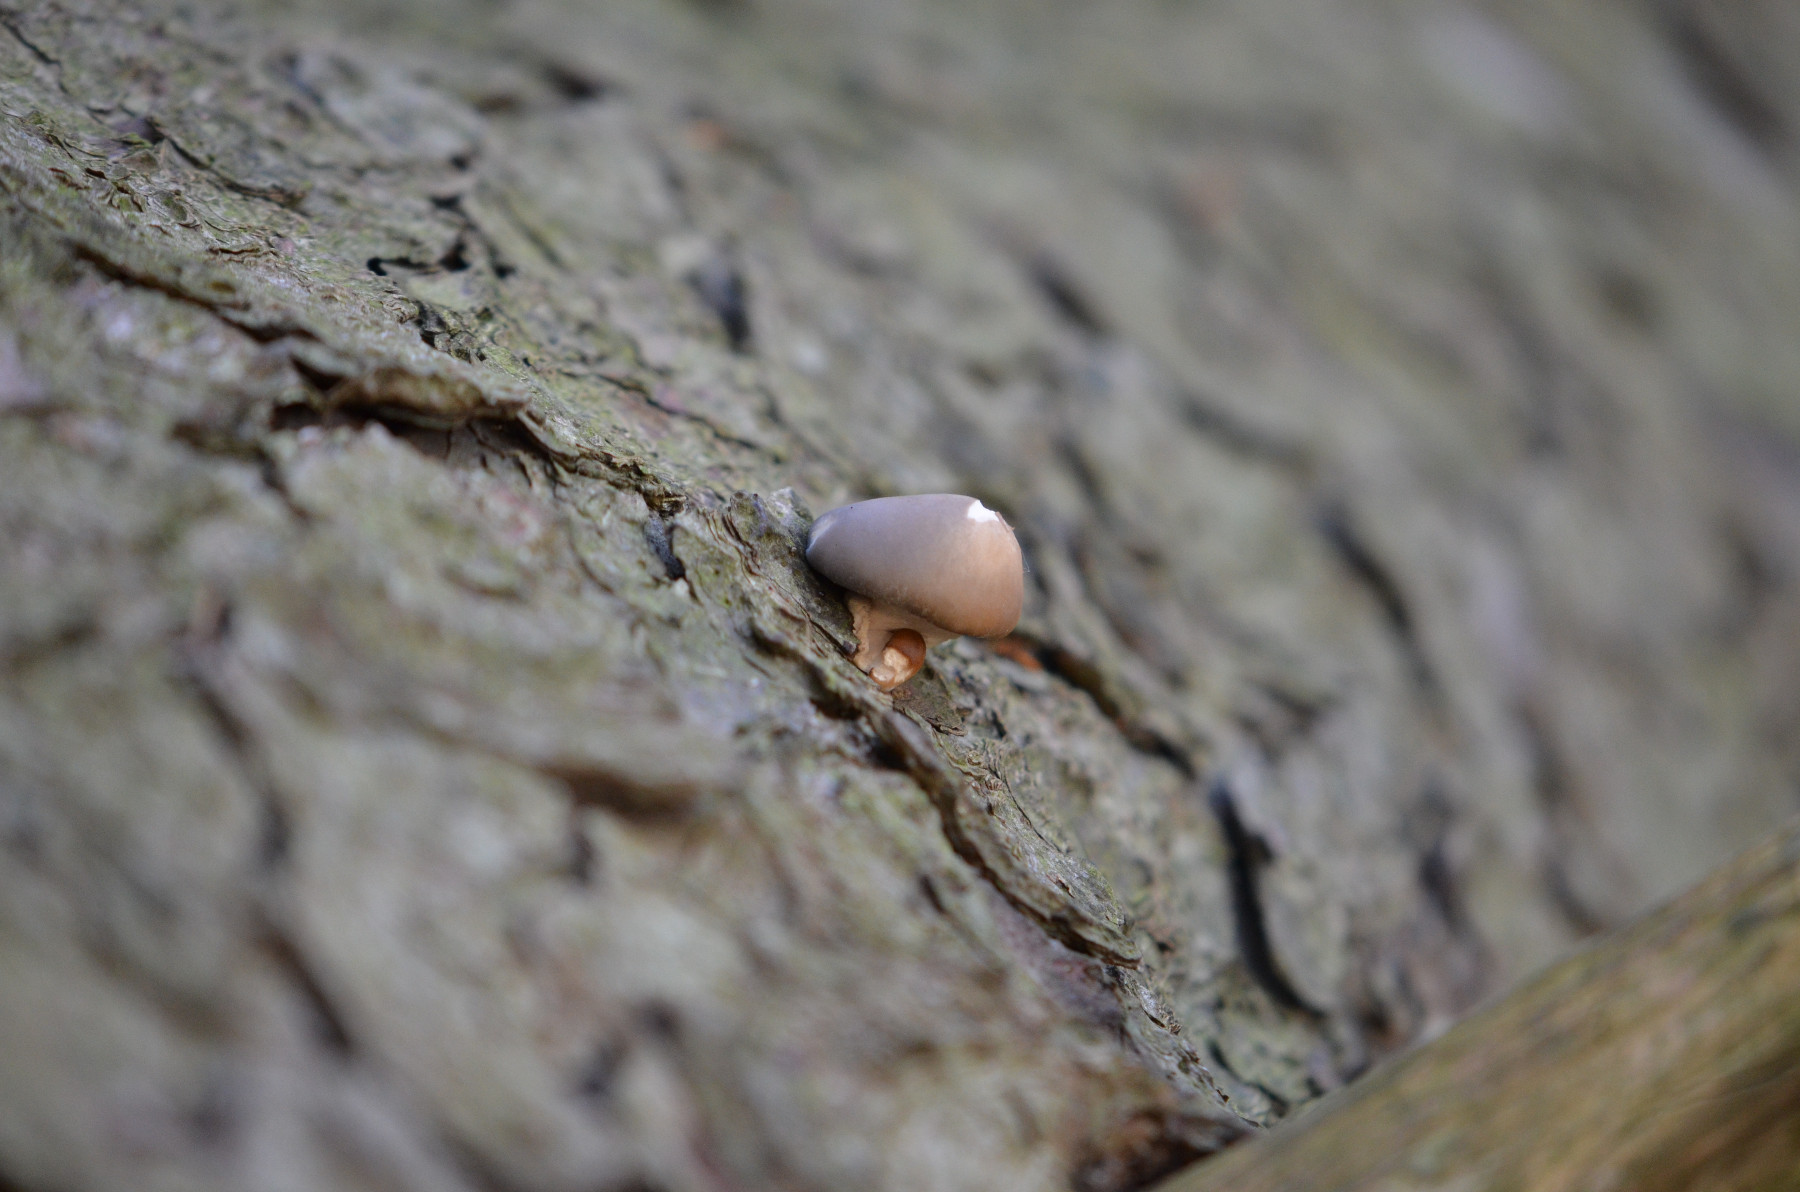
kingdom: Fungi
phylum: Basidiomycota
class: Agaricomycetes
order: Agaricales
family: Pleurotaceae
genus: Pleurotus
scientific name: Pleurotus ostreatus
